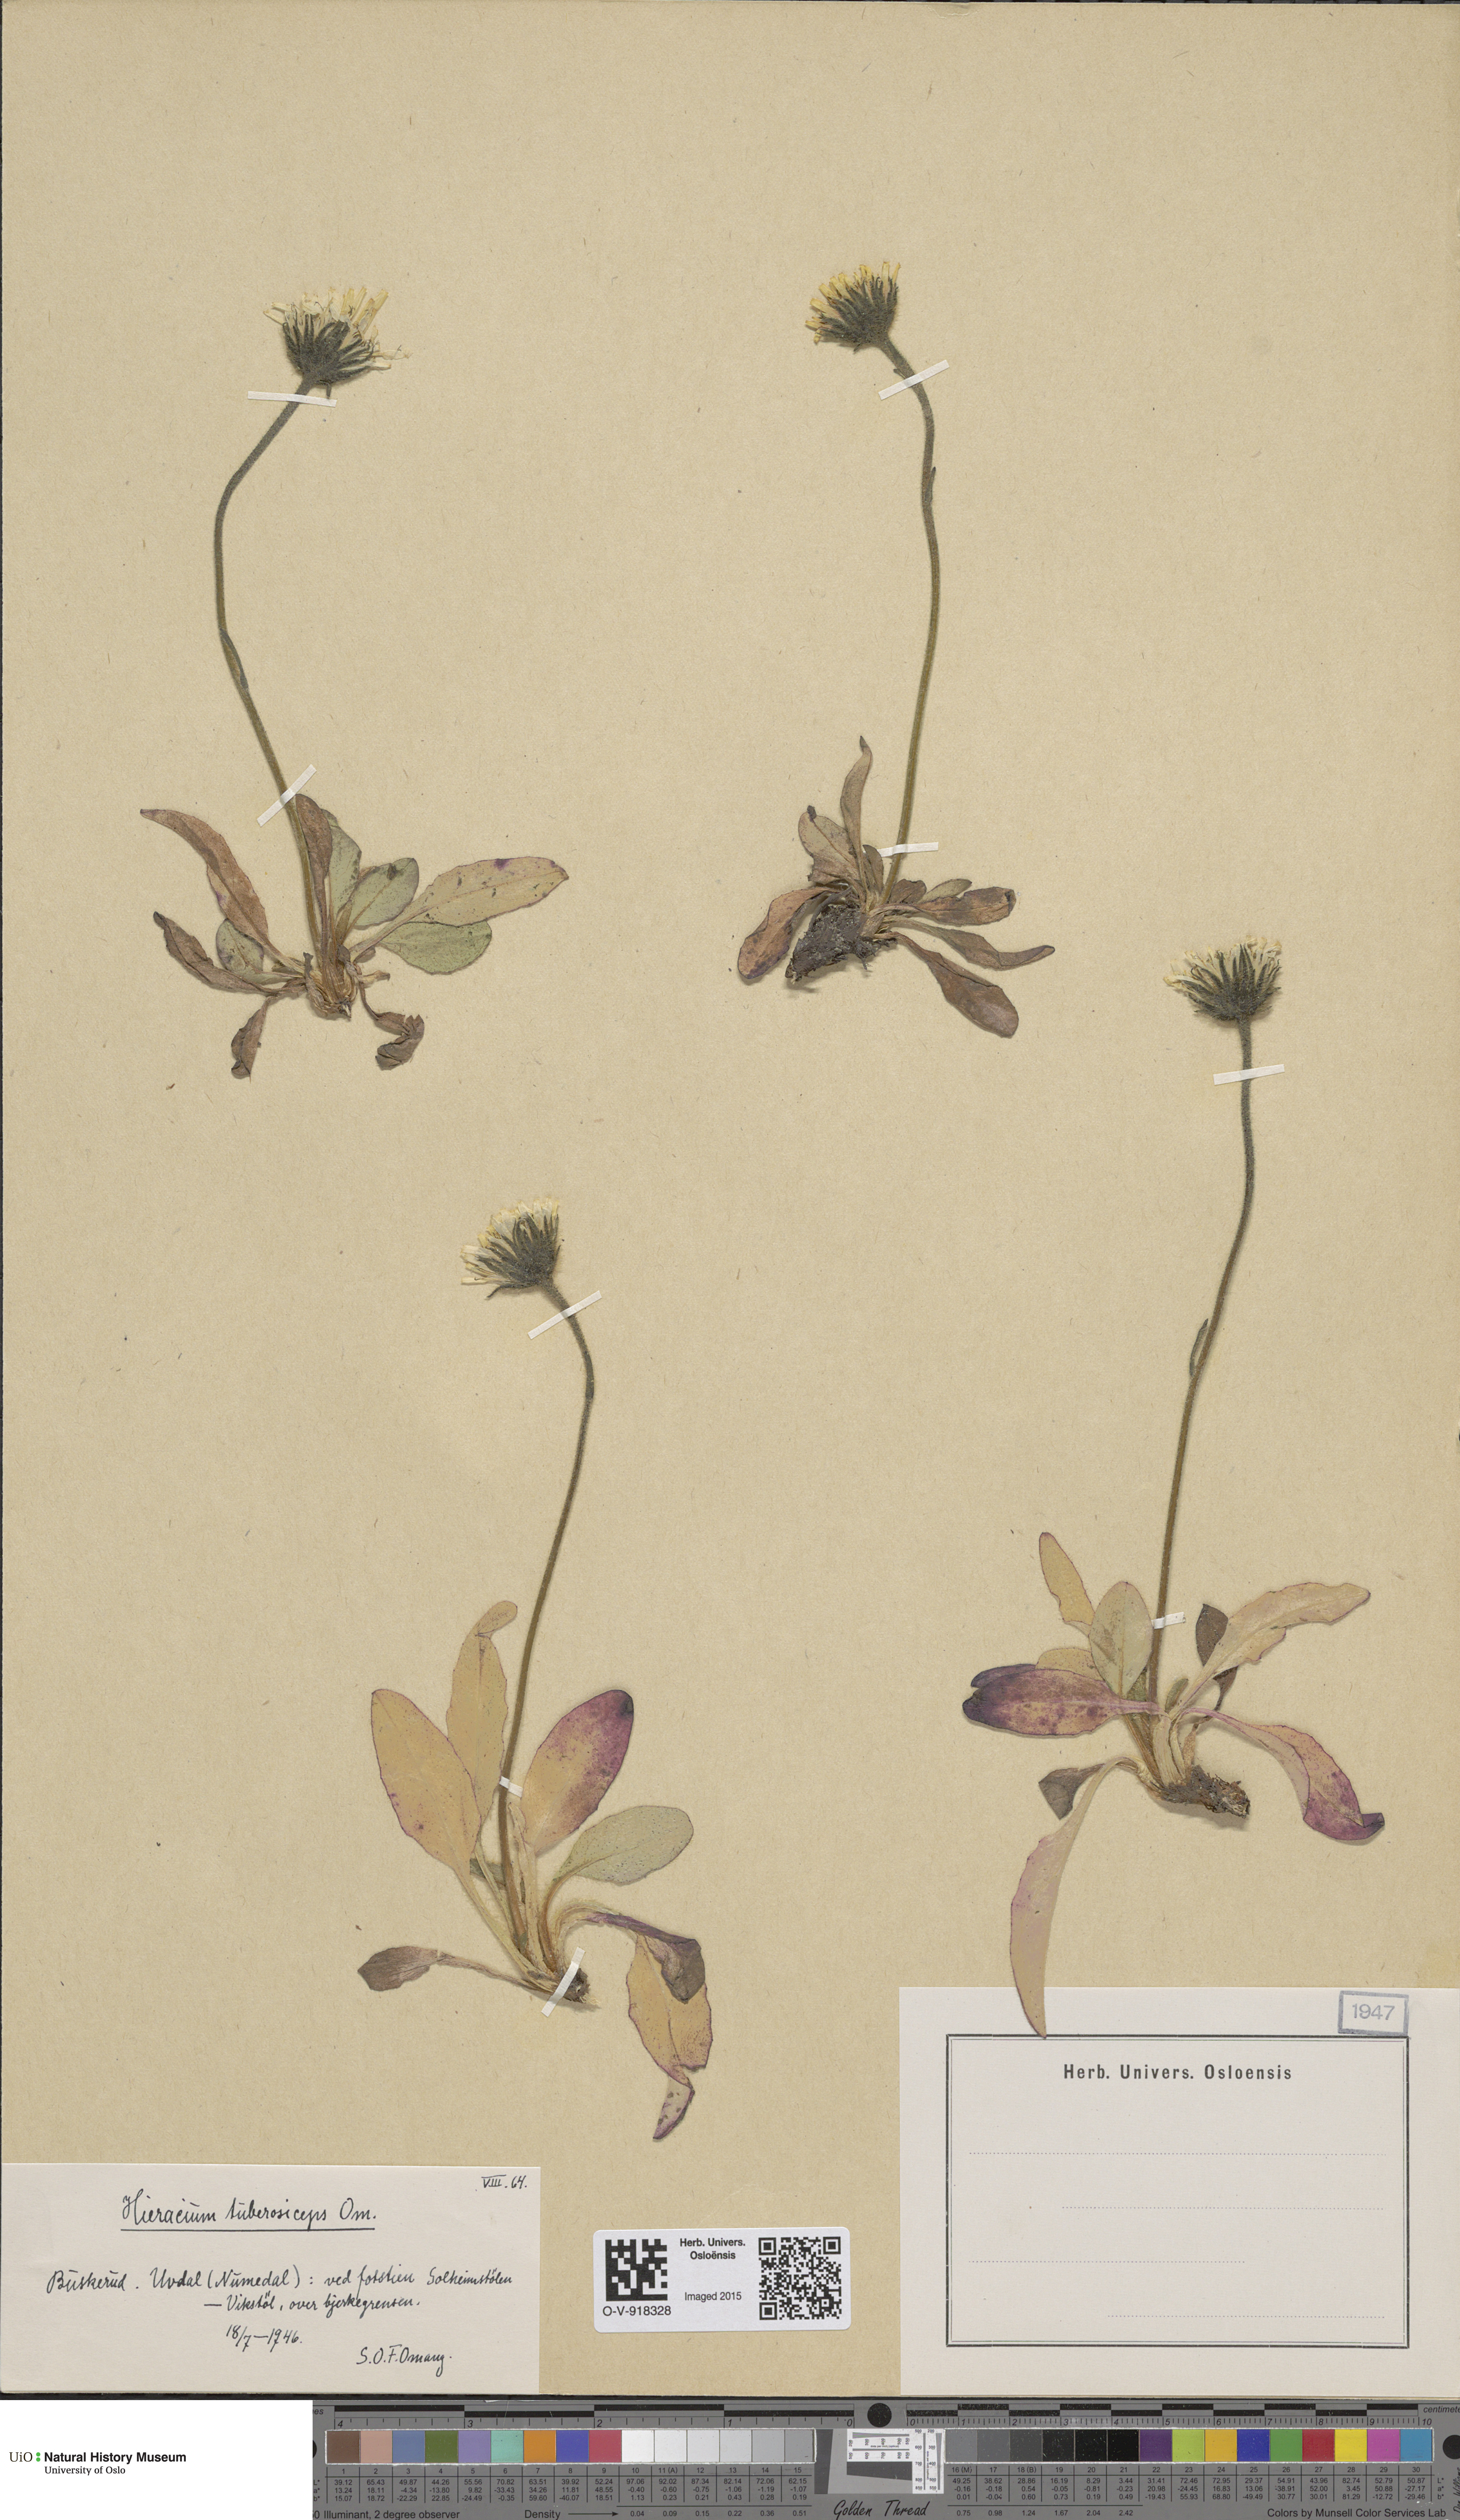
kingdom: Plantae
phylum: Tracheophyta
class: Magnoliopsida
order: Asterales
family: Asteraceae
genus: Hieracium
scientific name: Hieracium
